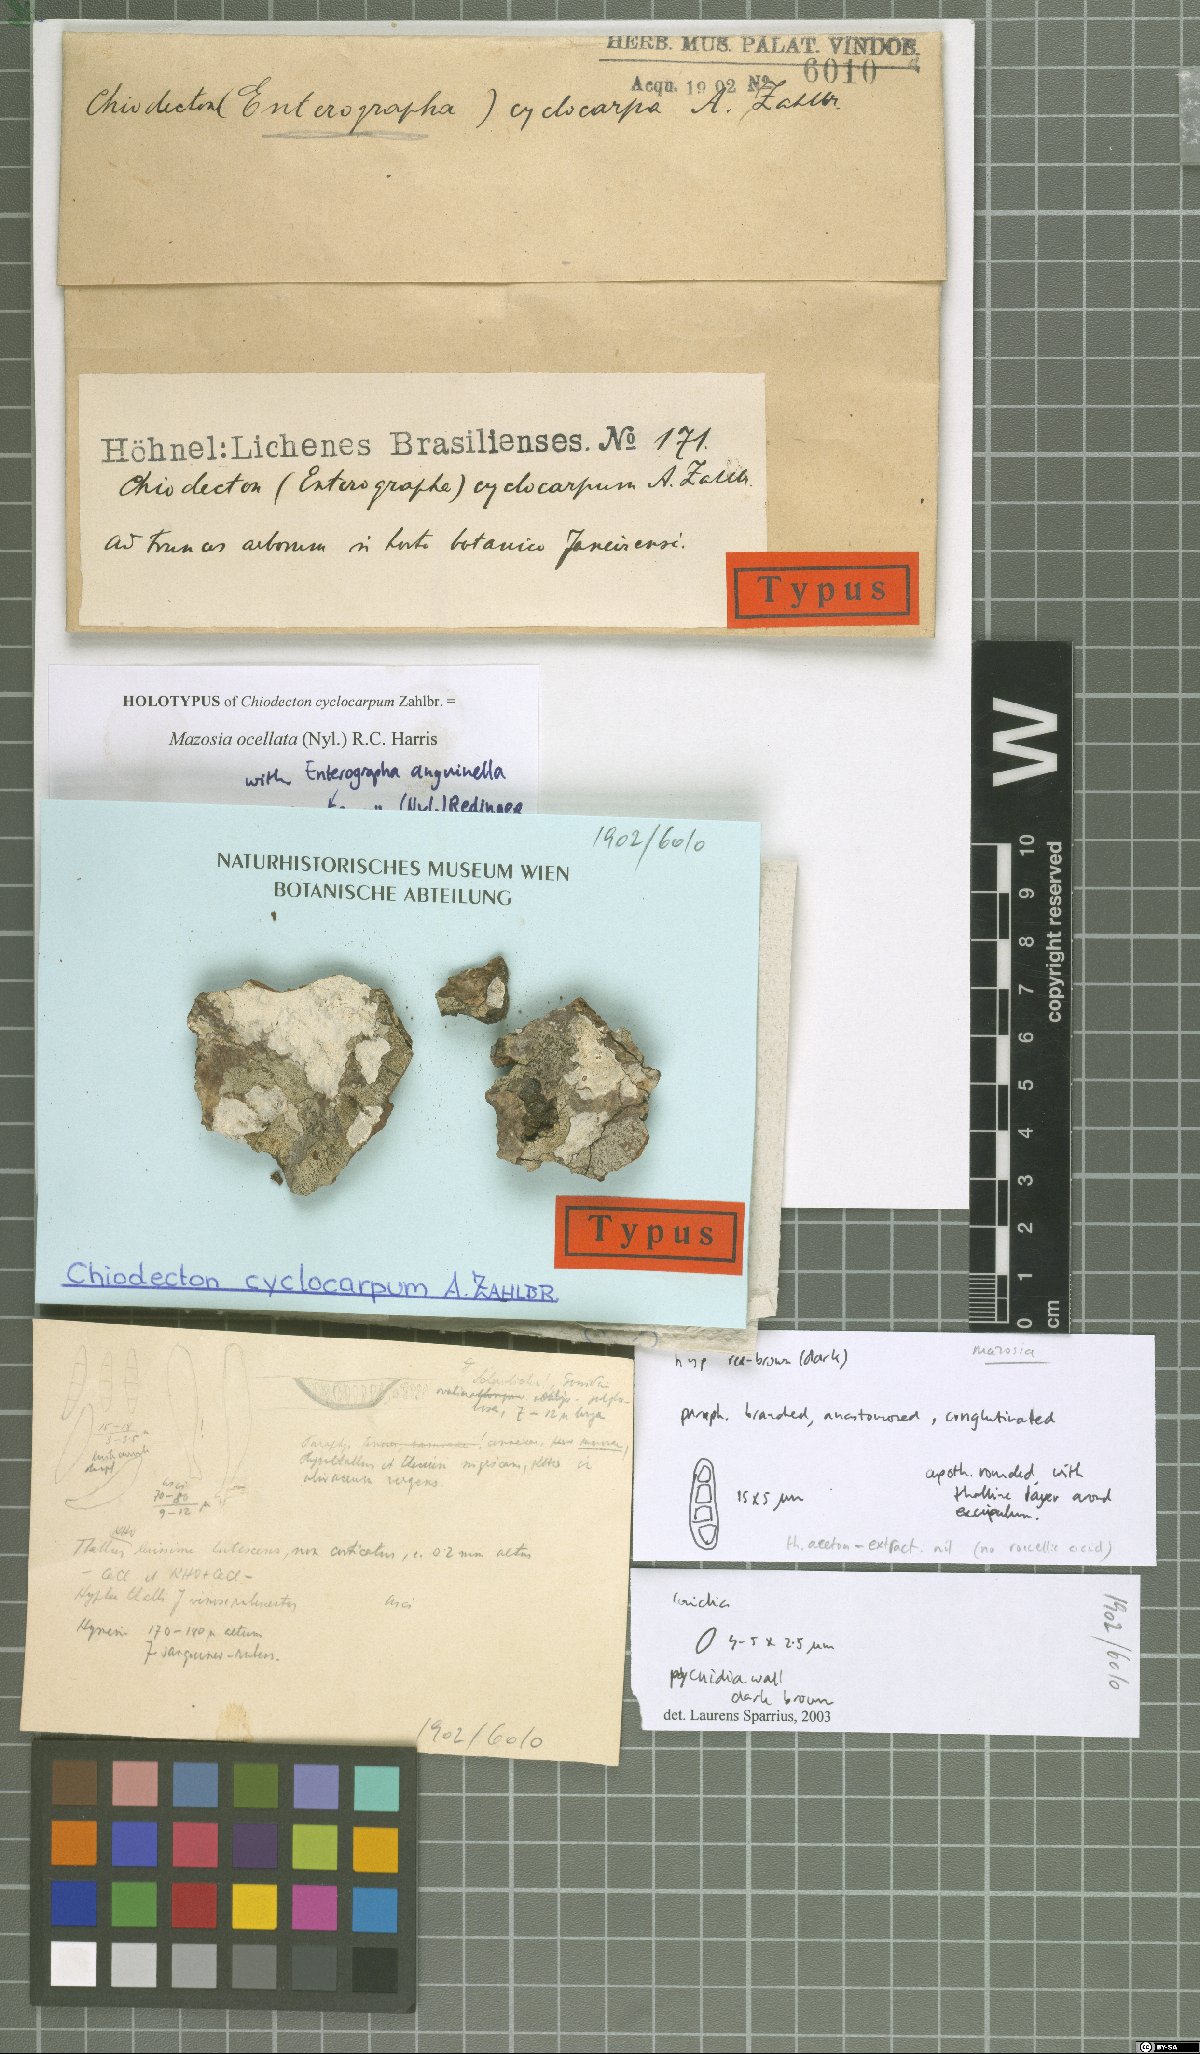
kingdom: Fungi
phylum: Ascomycota
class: Arthoniomycetes
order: Arthoniales
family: Roccellaceae
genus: Enterographa
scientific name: Enterographa cyclocarpa
